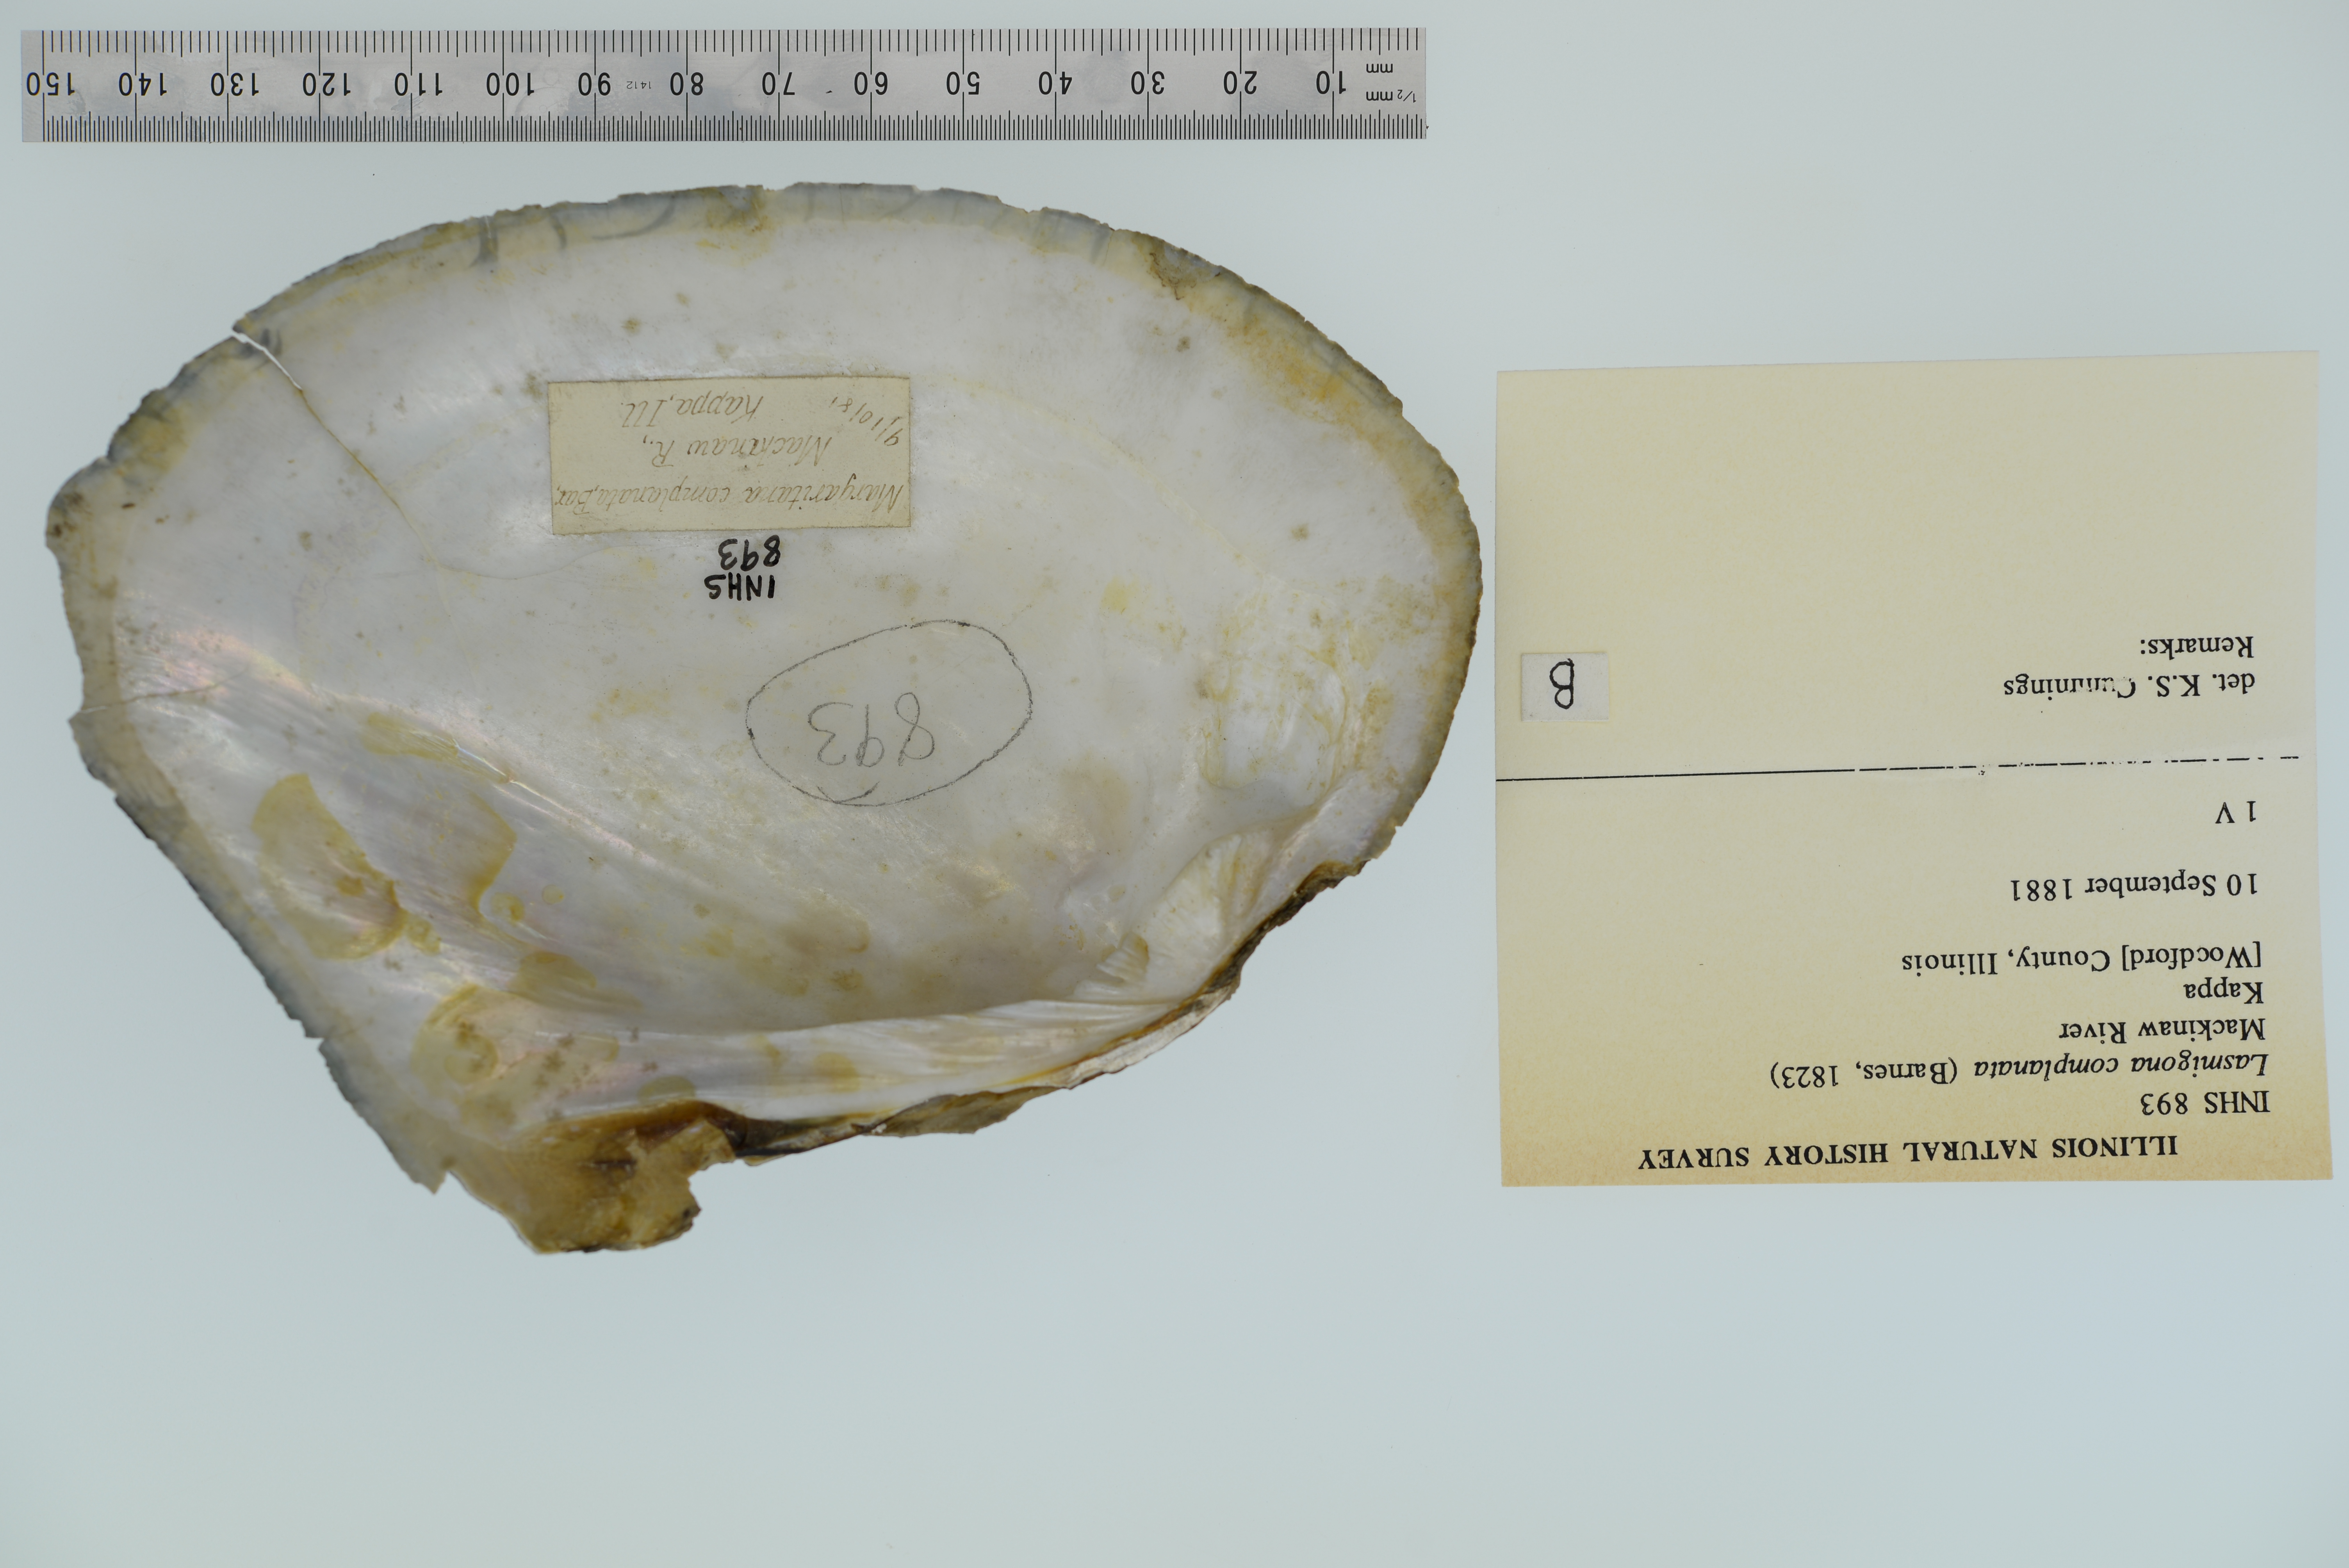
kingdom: Animalia
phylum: Mollusca
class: Bivalvia
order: Unionida
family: Unionidae
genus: Lasmigona
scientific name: Lasmigona complanata
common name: White heelsplitter
